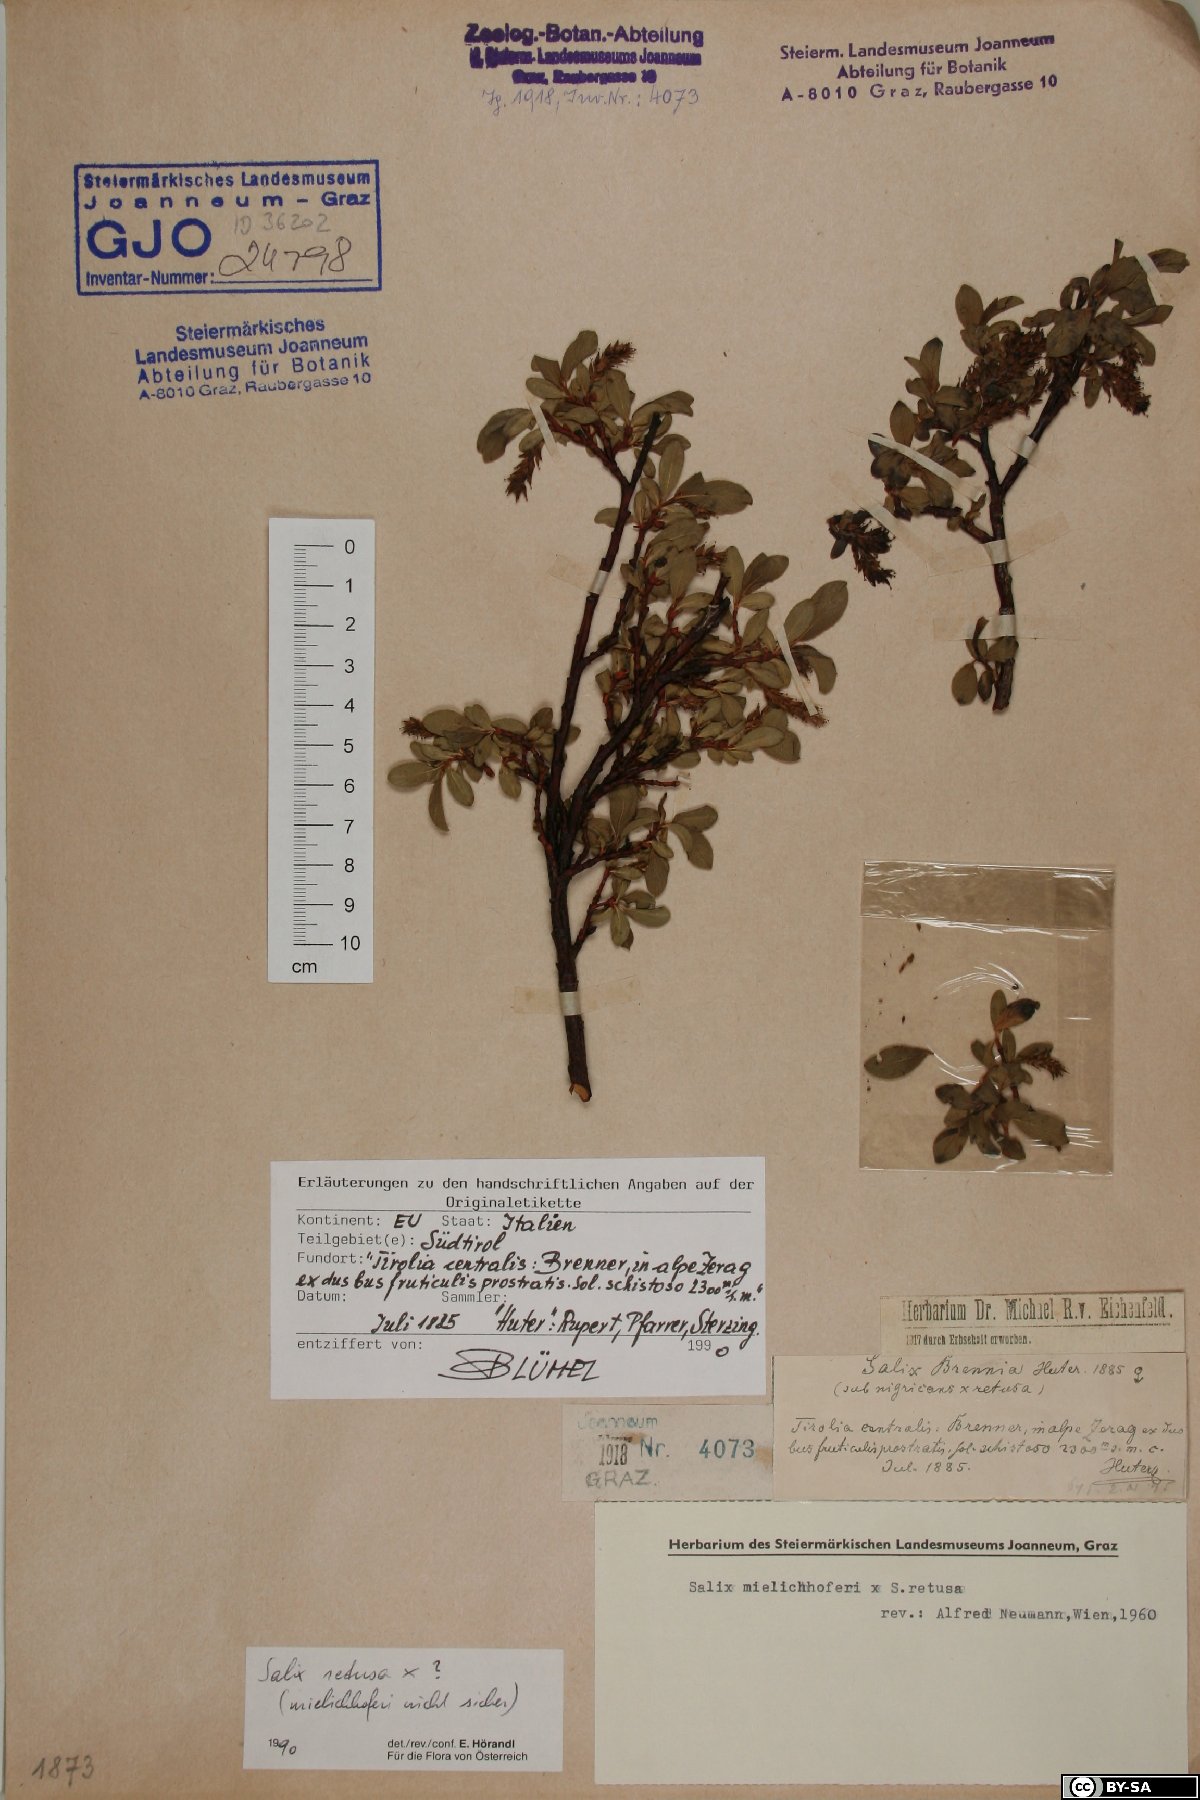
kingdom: Plantae
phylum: Tracheophyta
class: Magnoliopsida
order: Malpighiales
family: Salicaceae
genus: Salix
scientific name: Salix retusa
